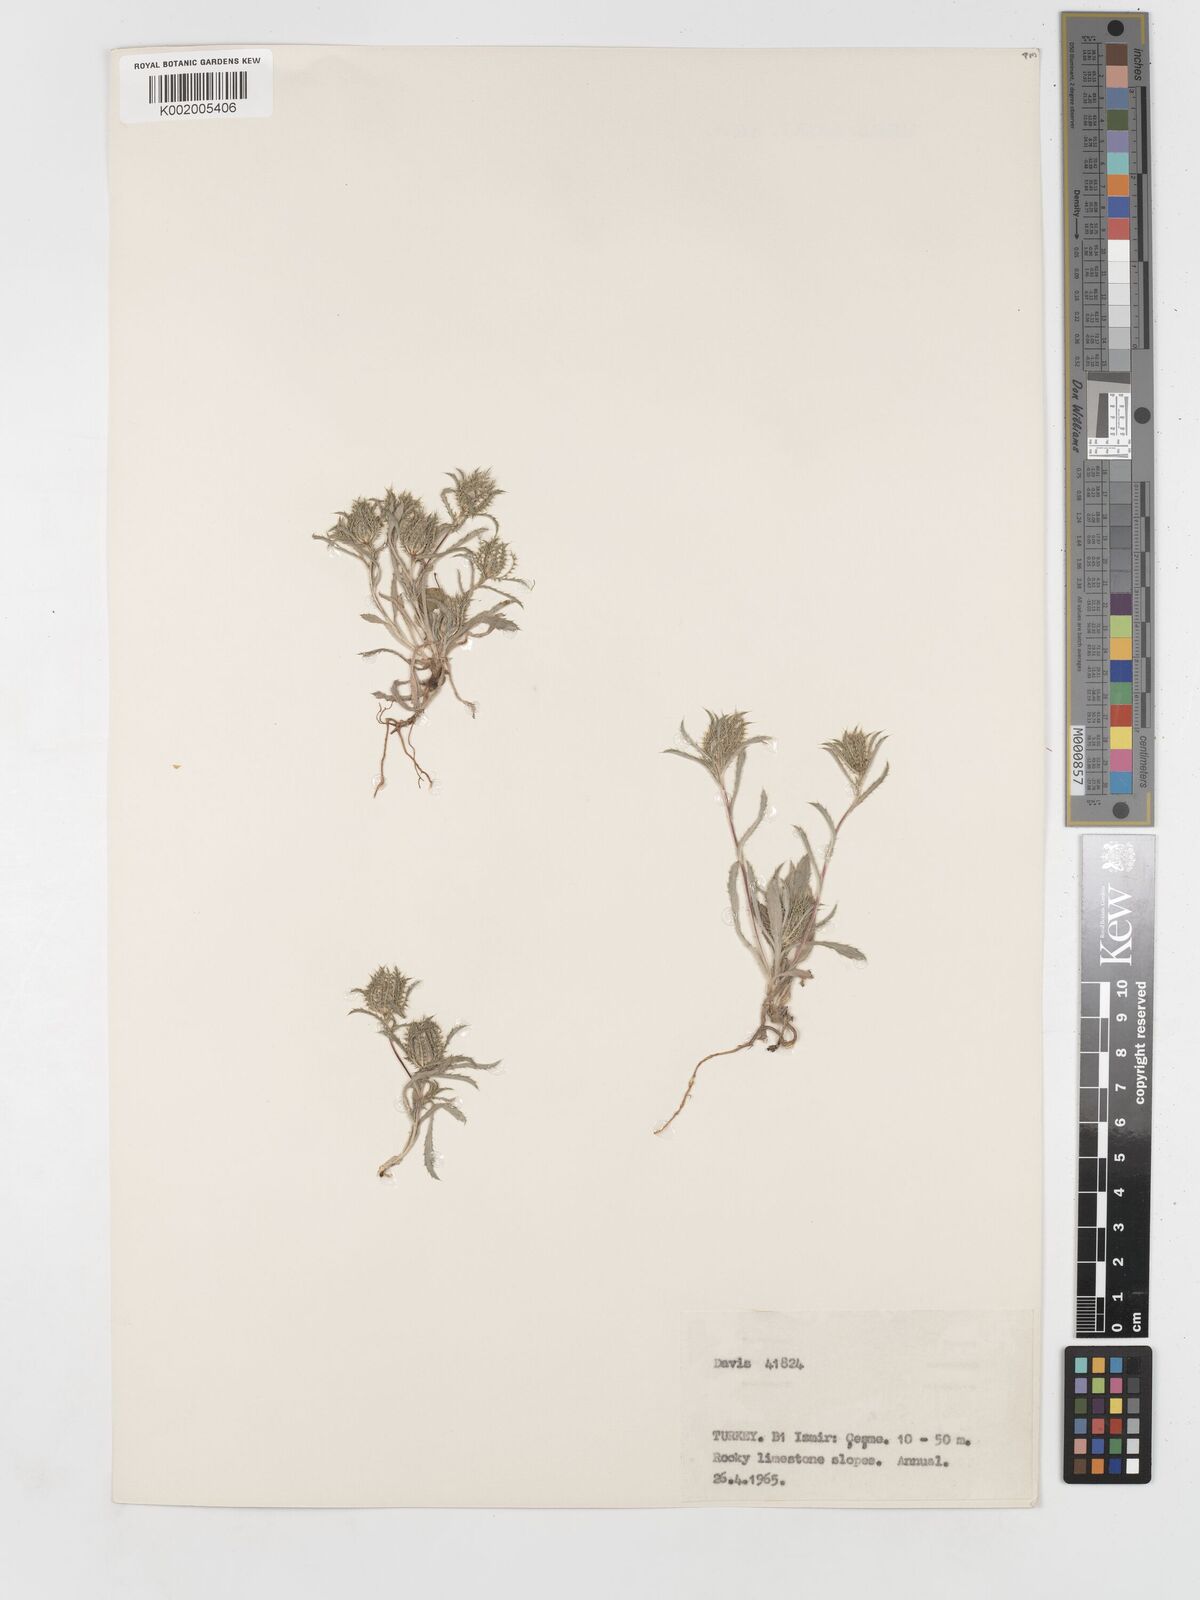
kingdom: Plantae
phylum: Tracheophyta
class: Magnoliopsida
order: Asterales
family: Asteraceae
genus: Atractylis
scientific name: Atractylis cancellata
